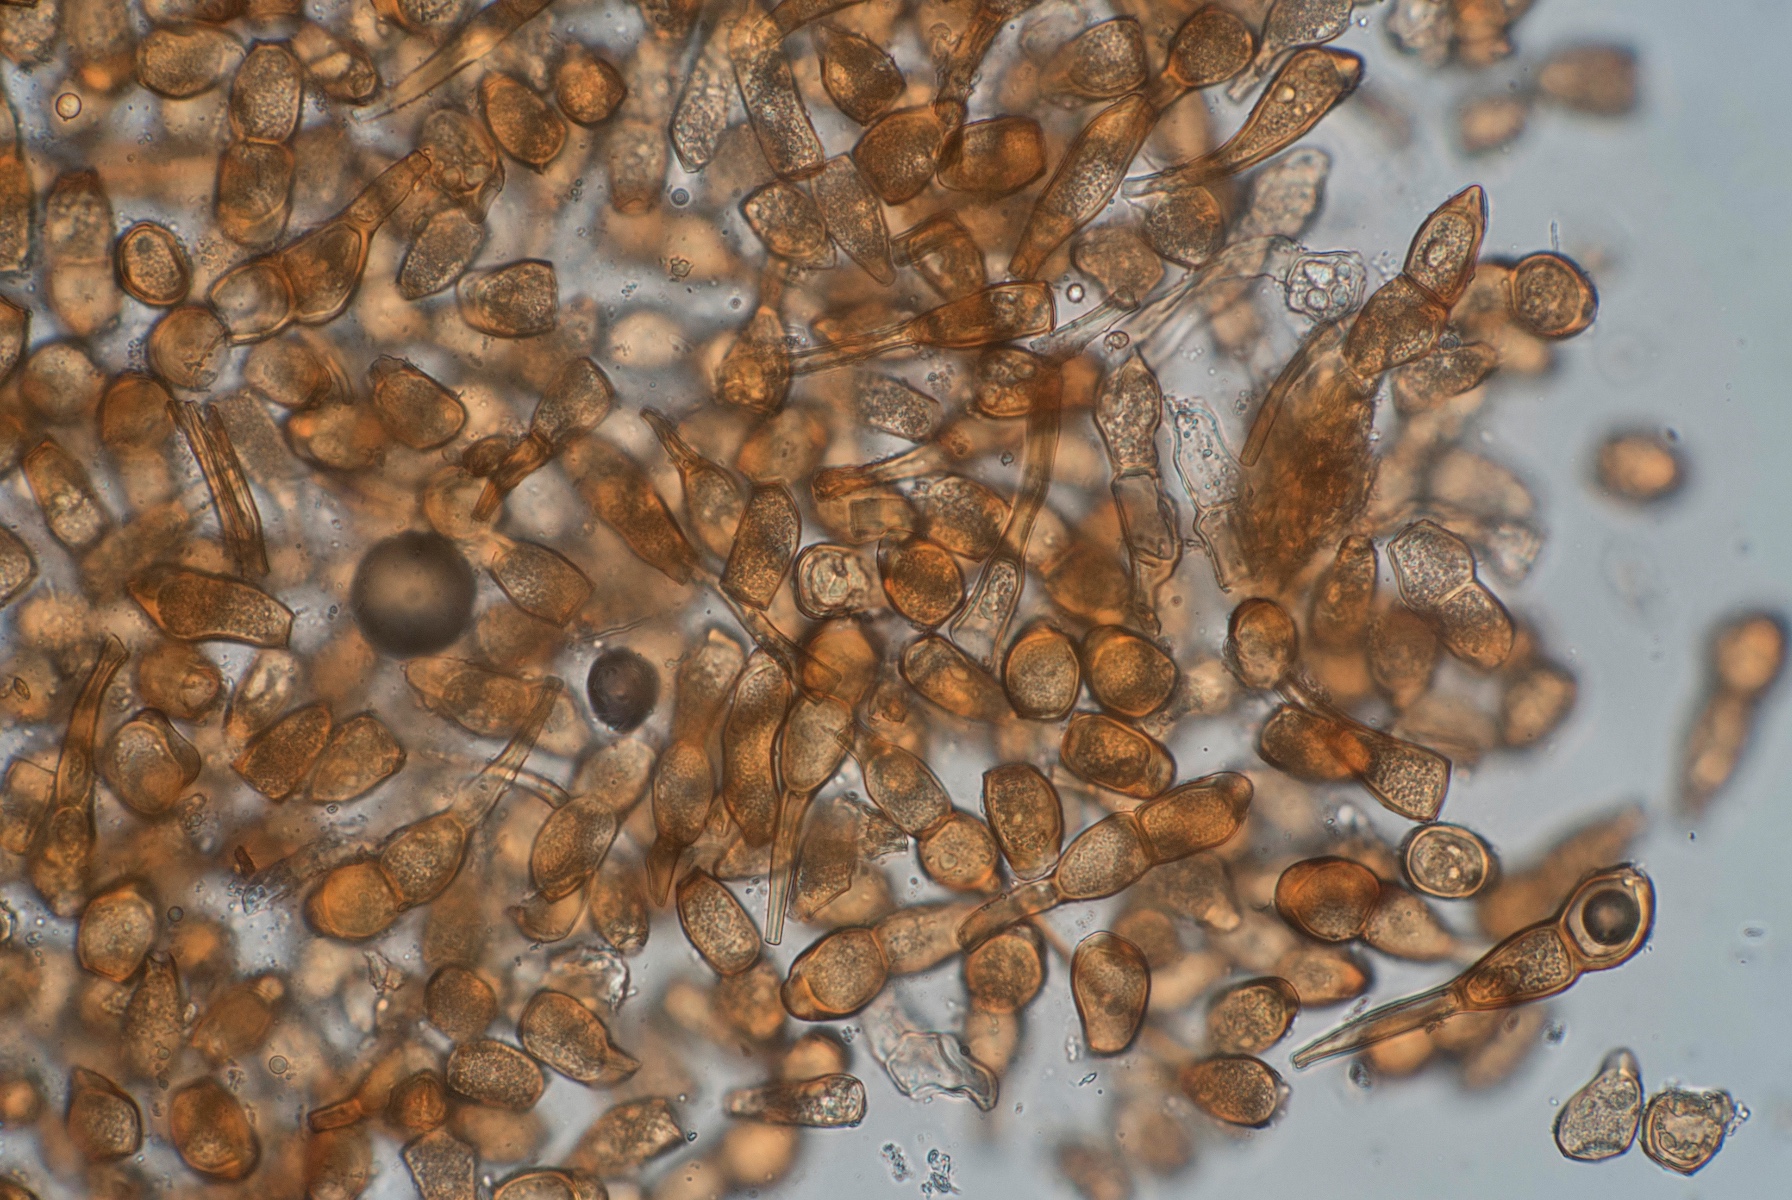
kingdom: Fungi
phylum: Basidiomycota
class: Pucciniomycetes
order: Pucciniales
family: Pucciniaceae
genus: Puccinia
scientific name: Puccinia caricina
